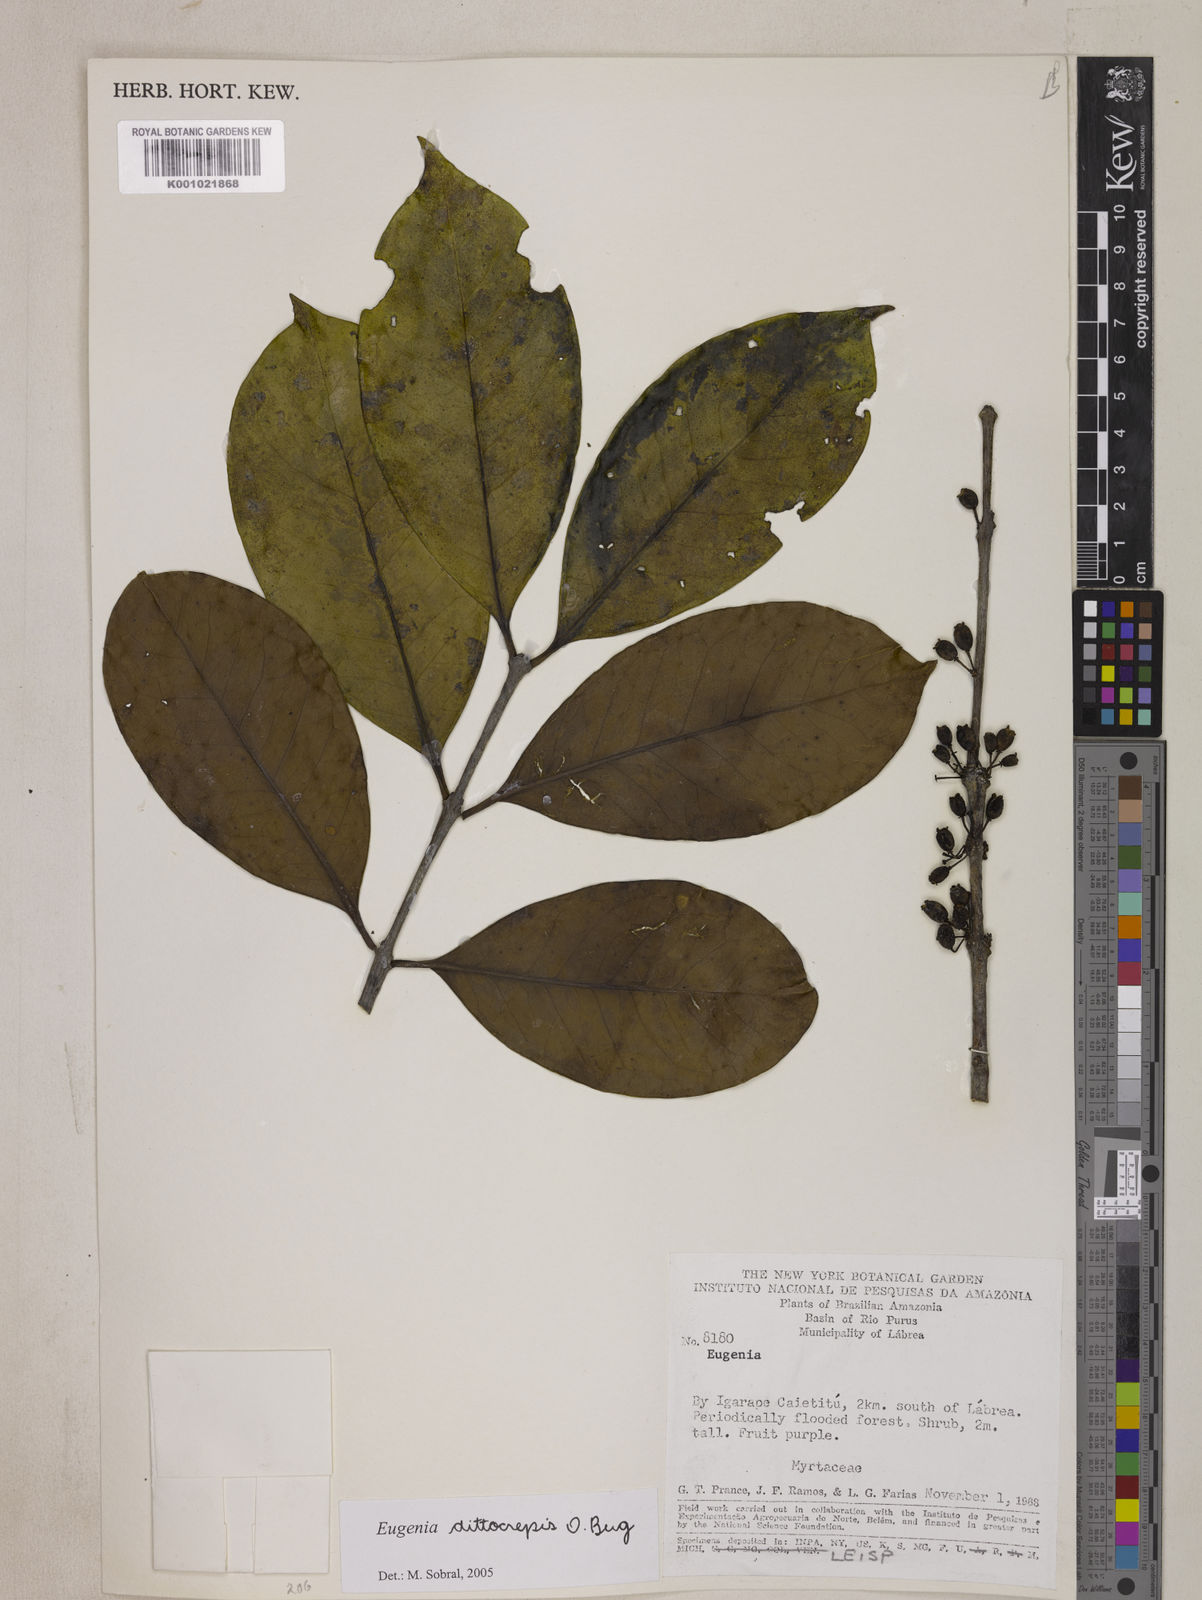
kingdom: Plantae
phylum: Tracheophyta
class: Magnoliopsida
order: Myrtales
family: Myrtaceae
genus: Eugenia
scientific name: Eugenia dittocrepis
